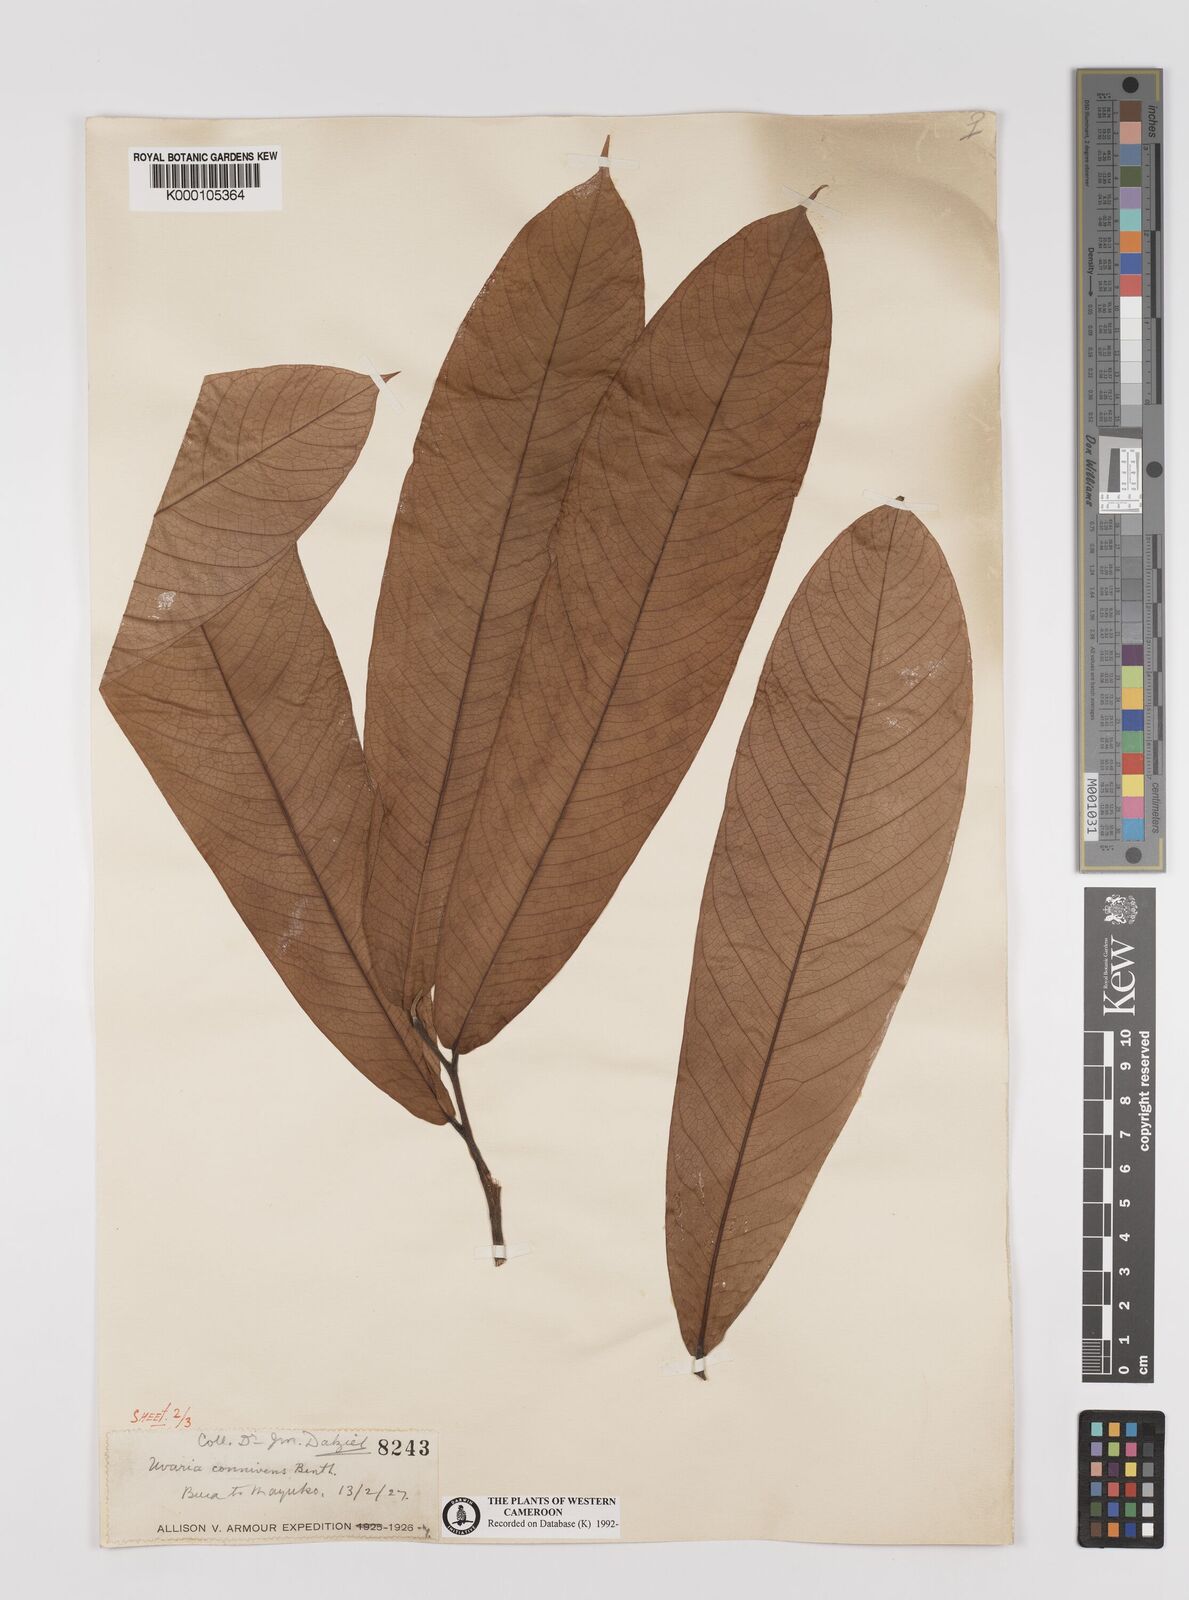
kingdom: Plantae
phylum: Tracheophyta
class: Magnoliopsida
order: Magnoliales
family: Annonaceae
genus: Uvariodendron
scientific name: Uvariodendron connivens
